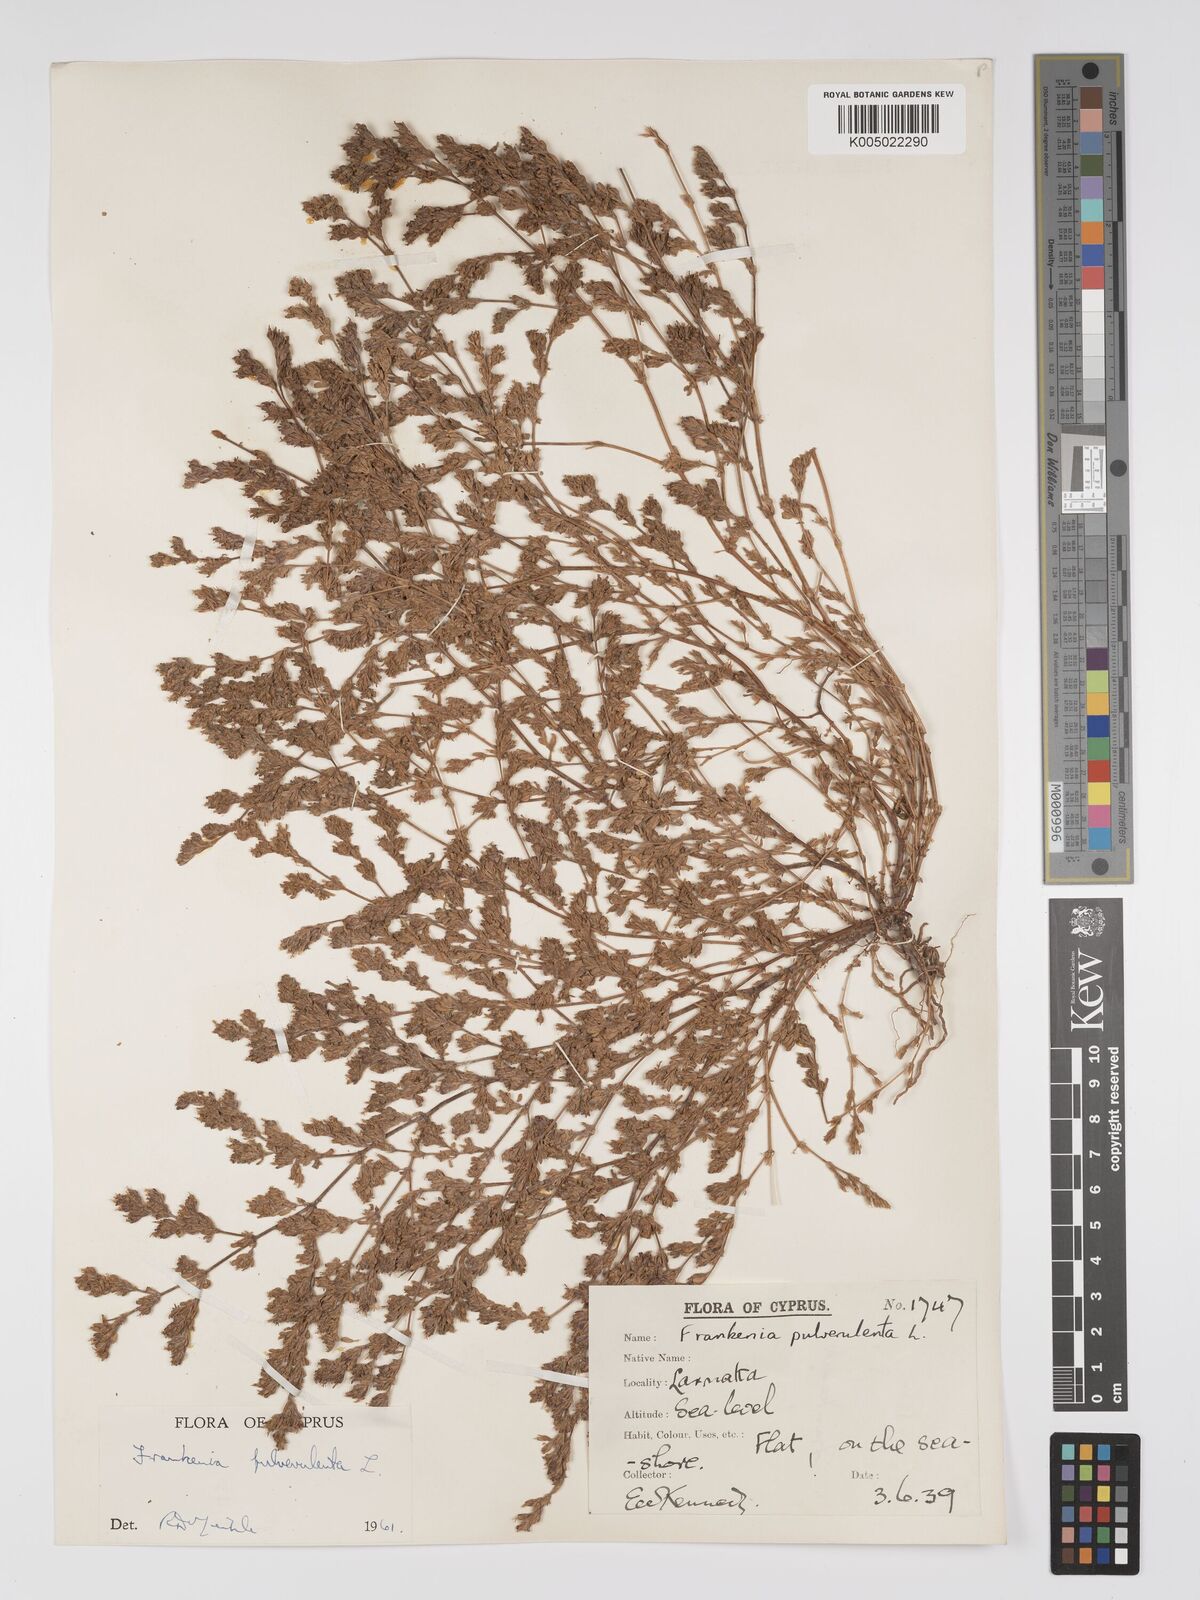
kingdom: Plantae
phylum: Tracheophyta
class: Magnoliopsida
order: Caryophyllales
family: Frankeniaceae
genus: Frankenia
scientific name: Frankenia pulverulenta
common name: European seaheath
